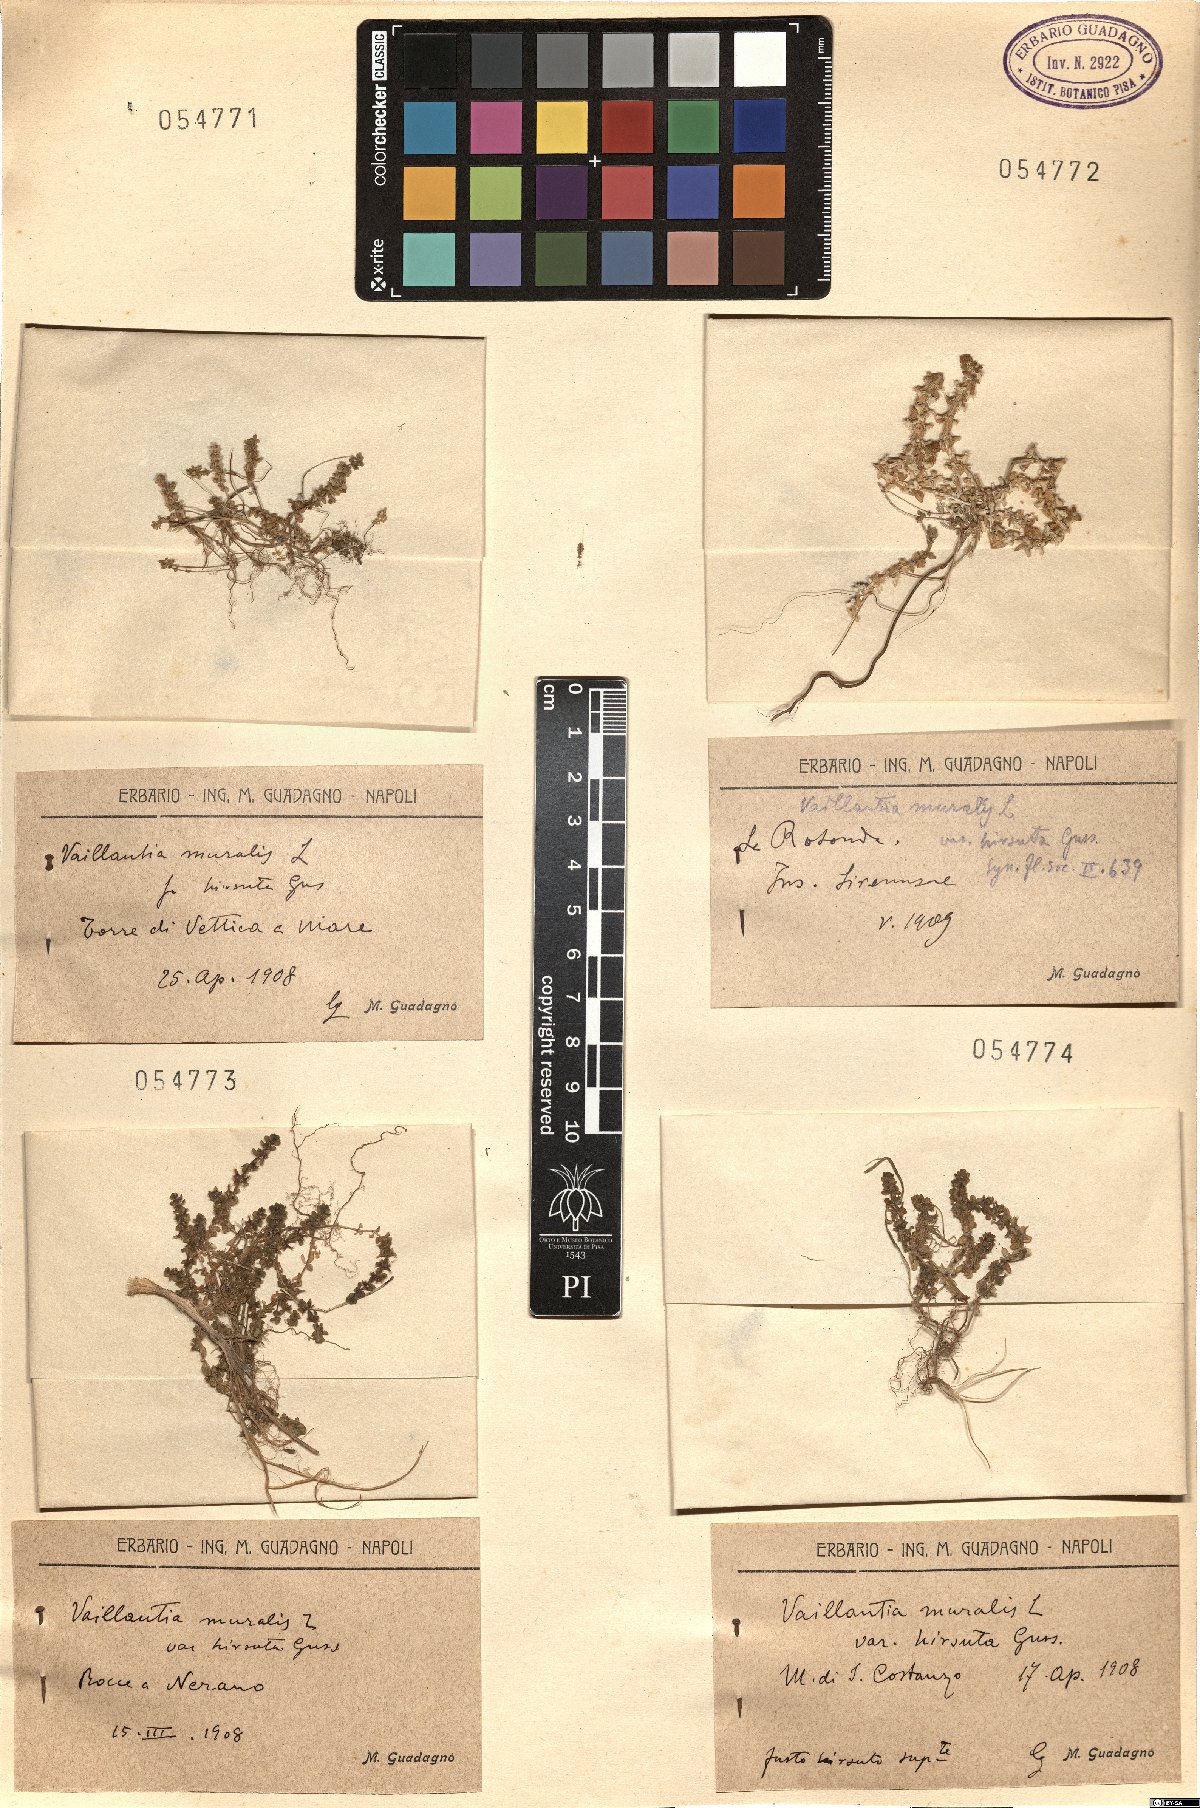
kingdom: Plantae
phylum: Tracheophyta
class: Magnoliopsida
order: Gentianales
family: Rubiaceae
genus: Valantia
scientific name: Valantia muralis
